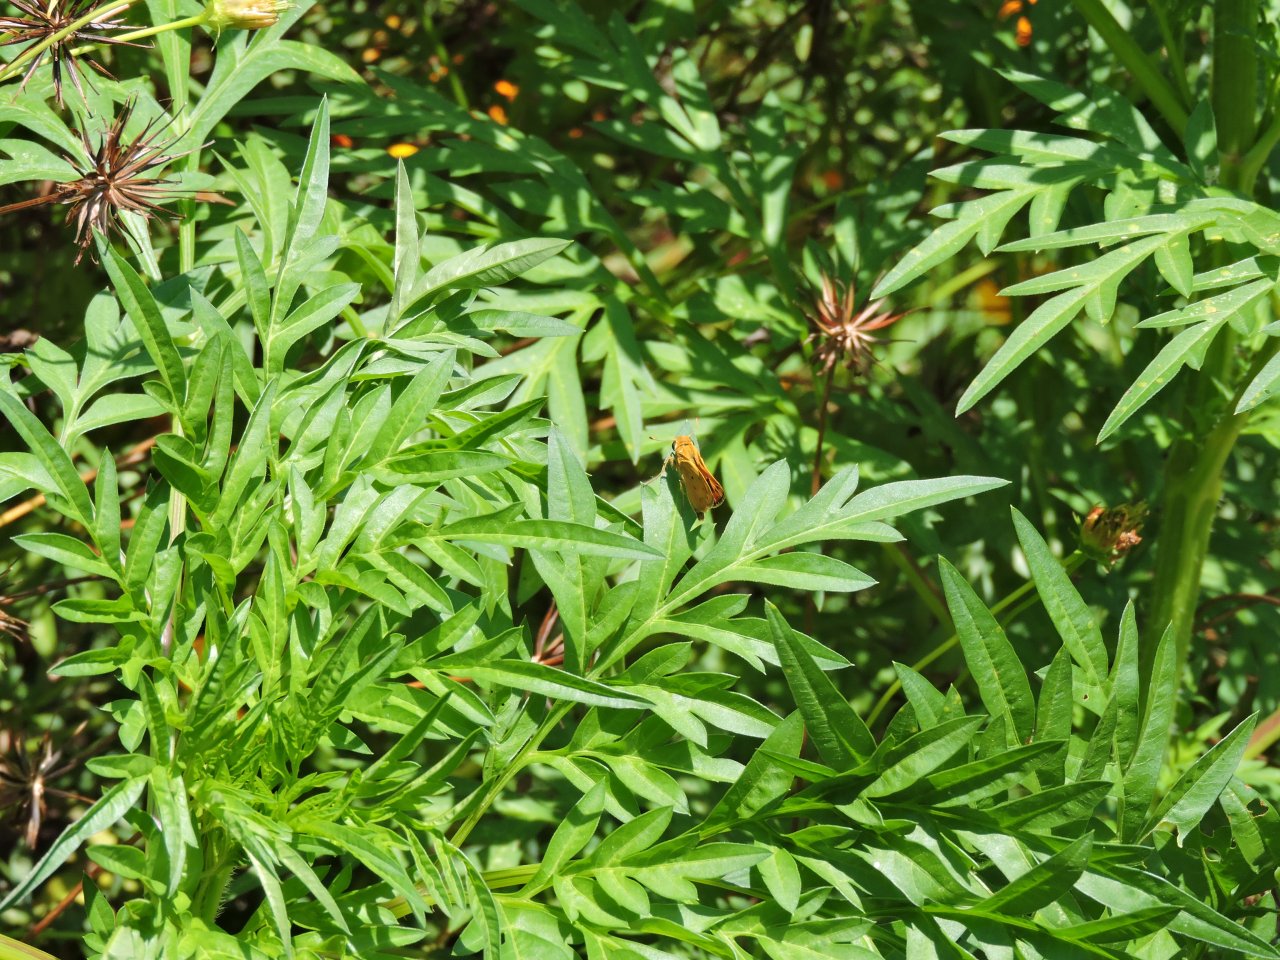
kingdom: Animalia
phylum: Arthropoda
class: Insecta
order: Lepidoptera
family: Hesperiidae
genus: Hylephila
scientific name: Hylephila phyleus
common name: Fiery Skipper
